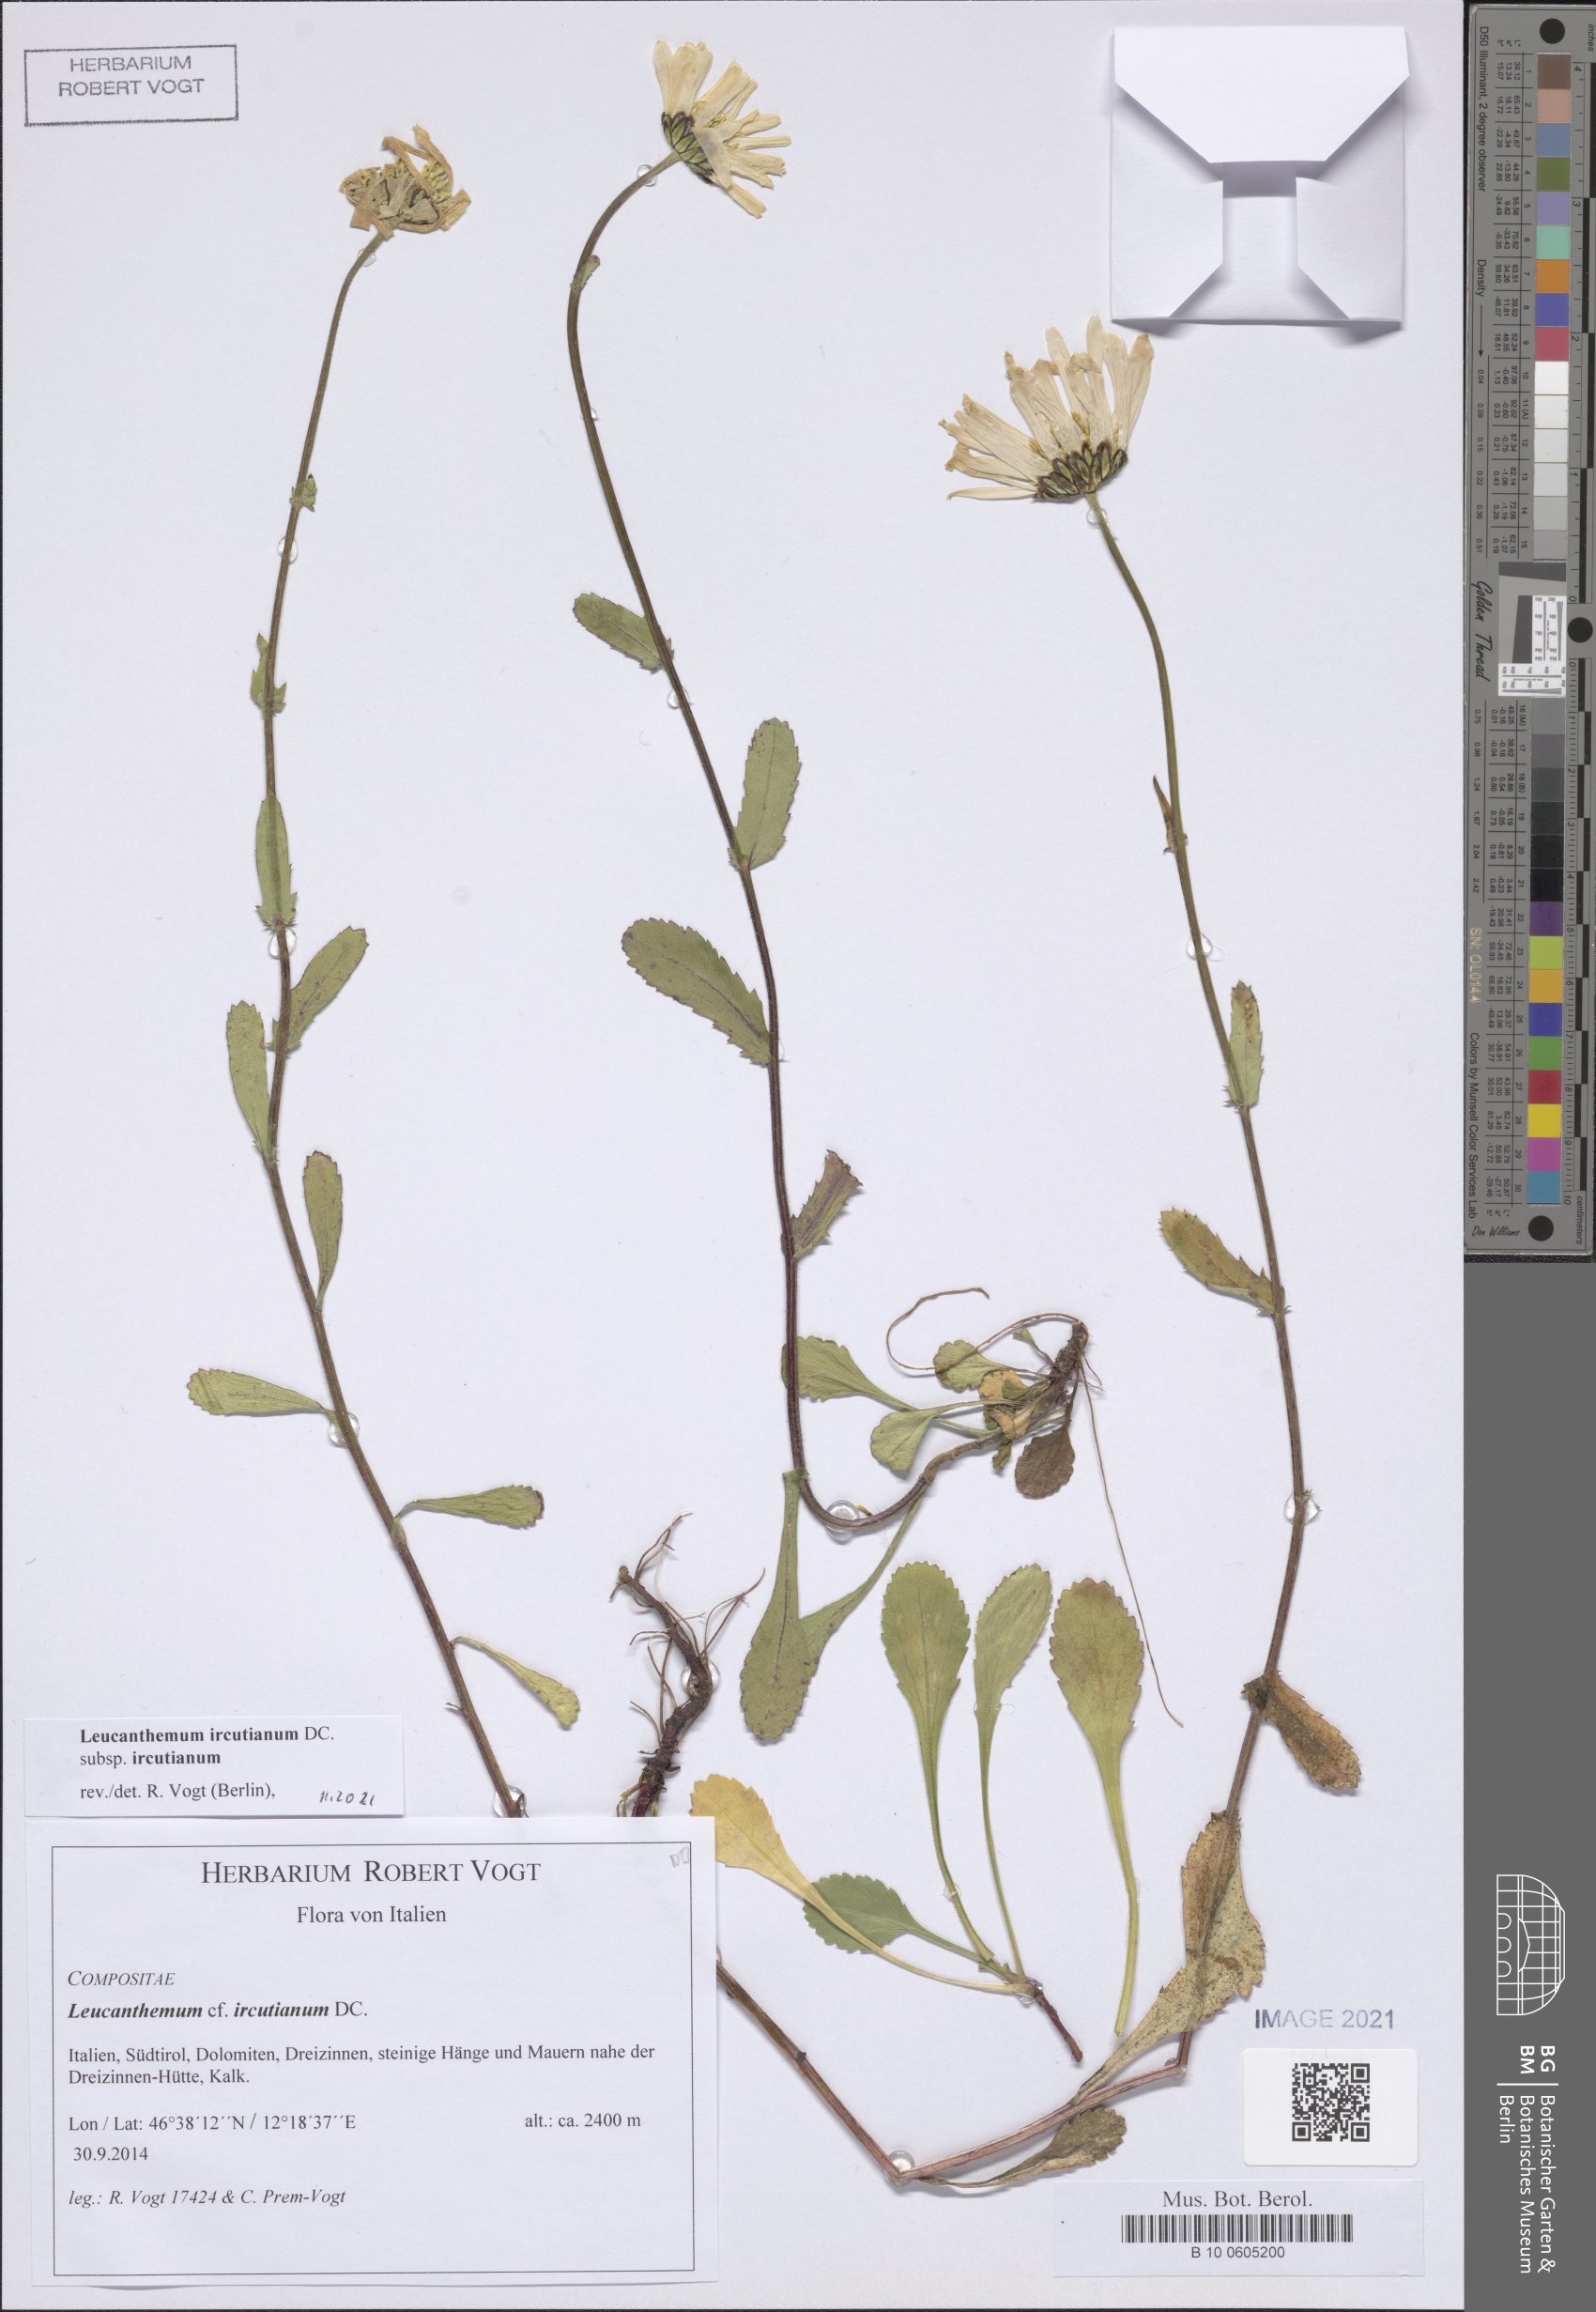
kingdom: Plantae
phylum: Tracheophyta
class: Magnoliopsida
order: Asterales
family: Asteraceae
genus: Leucanthemum
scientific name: Leucanthemum ircutianum
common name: Daisy
